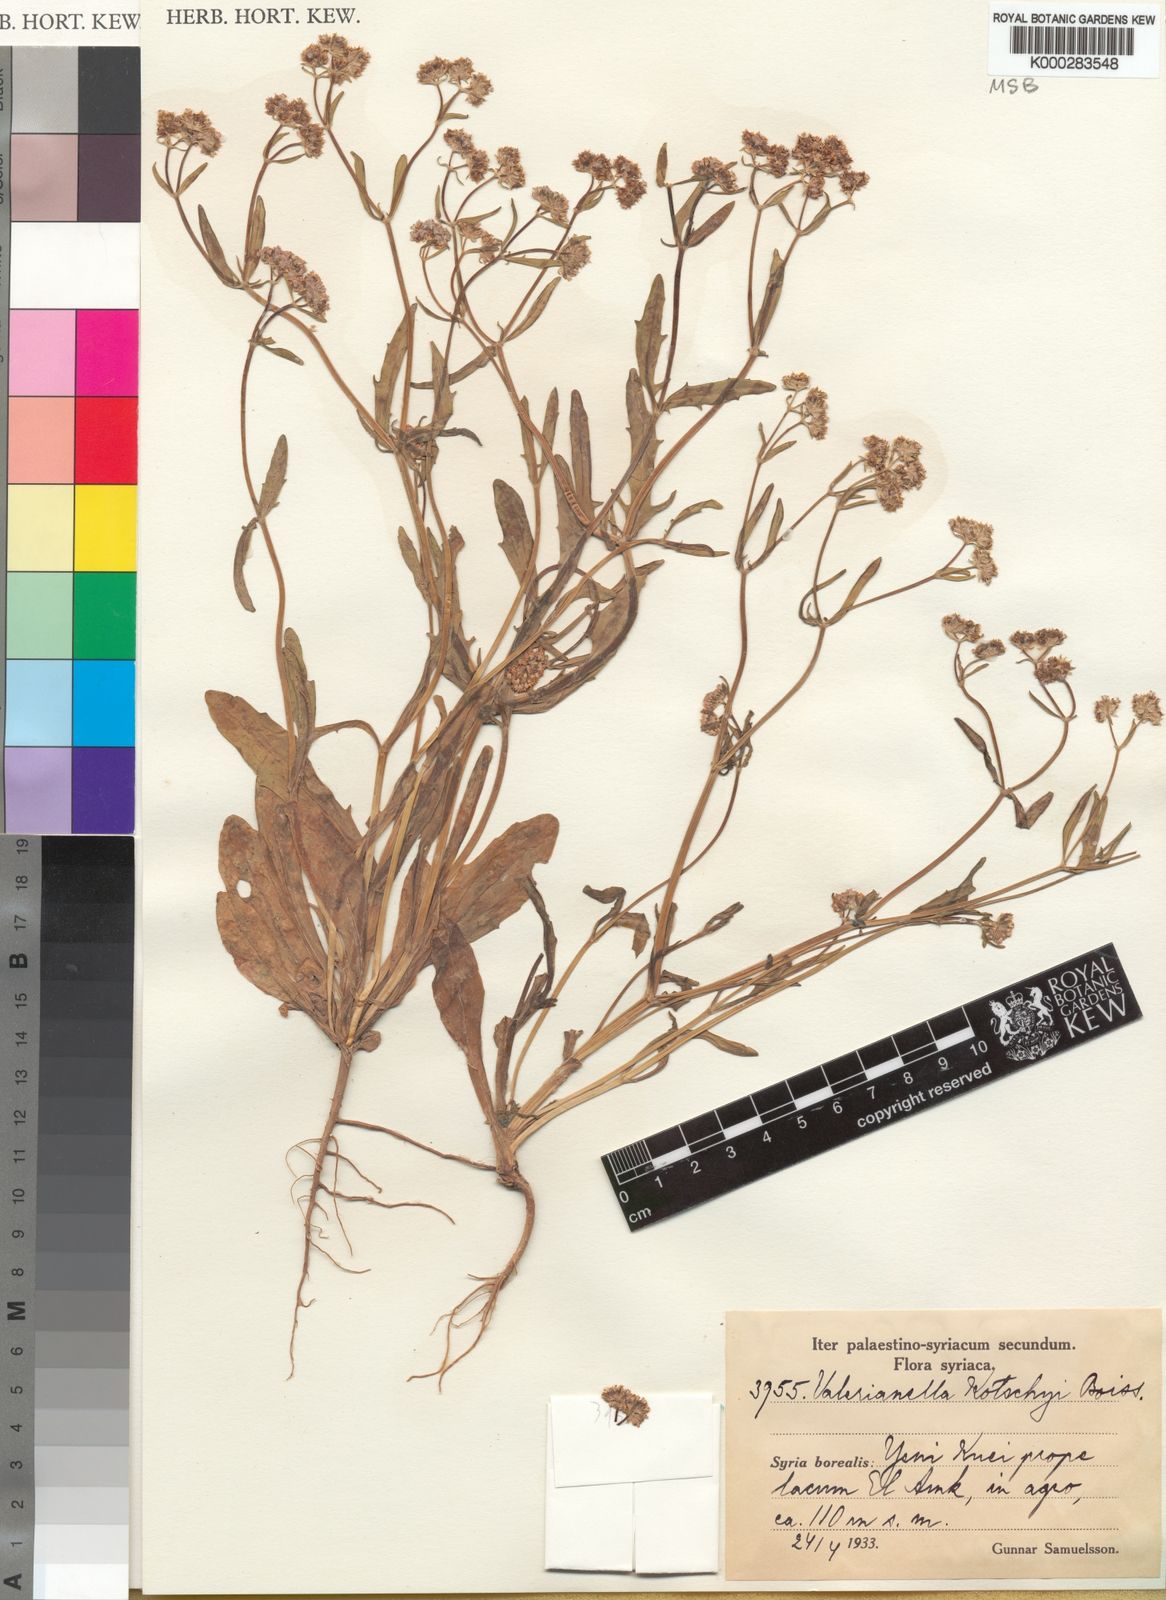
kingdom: Plantae
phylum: Tracheophyta
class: Magnoliopsida
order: Dipsacales
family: Caprifoliaceae
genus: Valerianella
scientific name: Valerianella kotschyi
